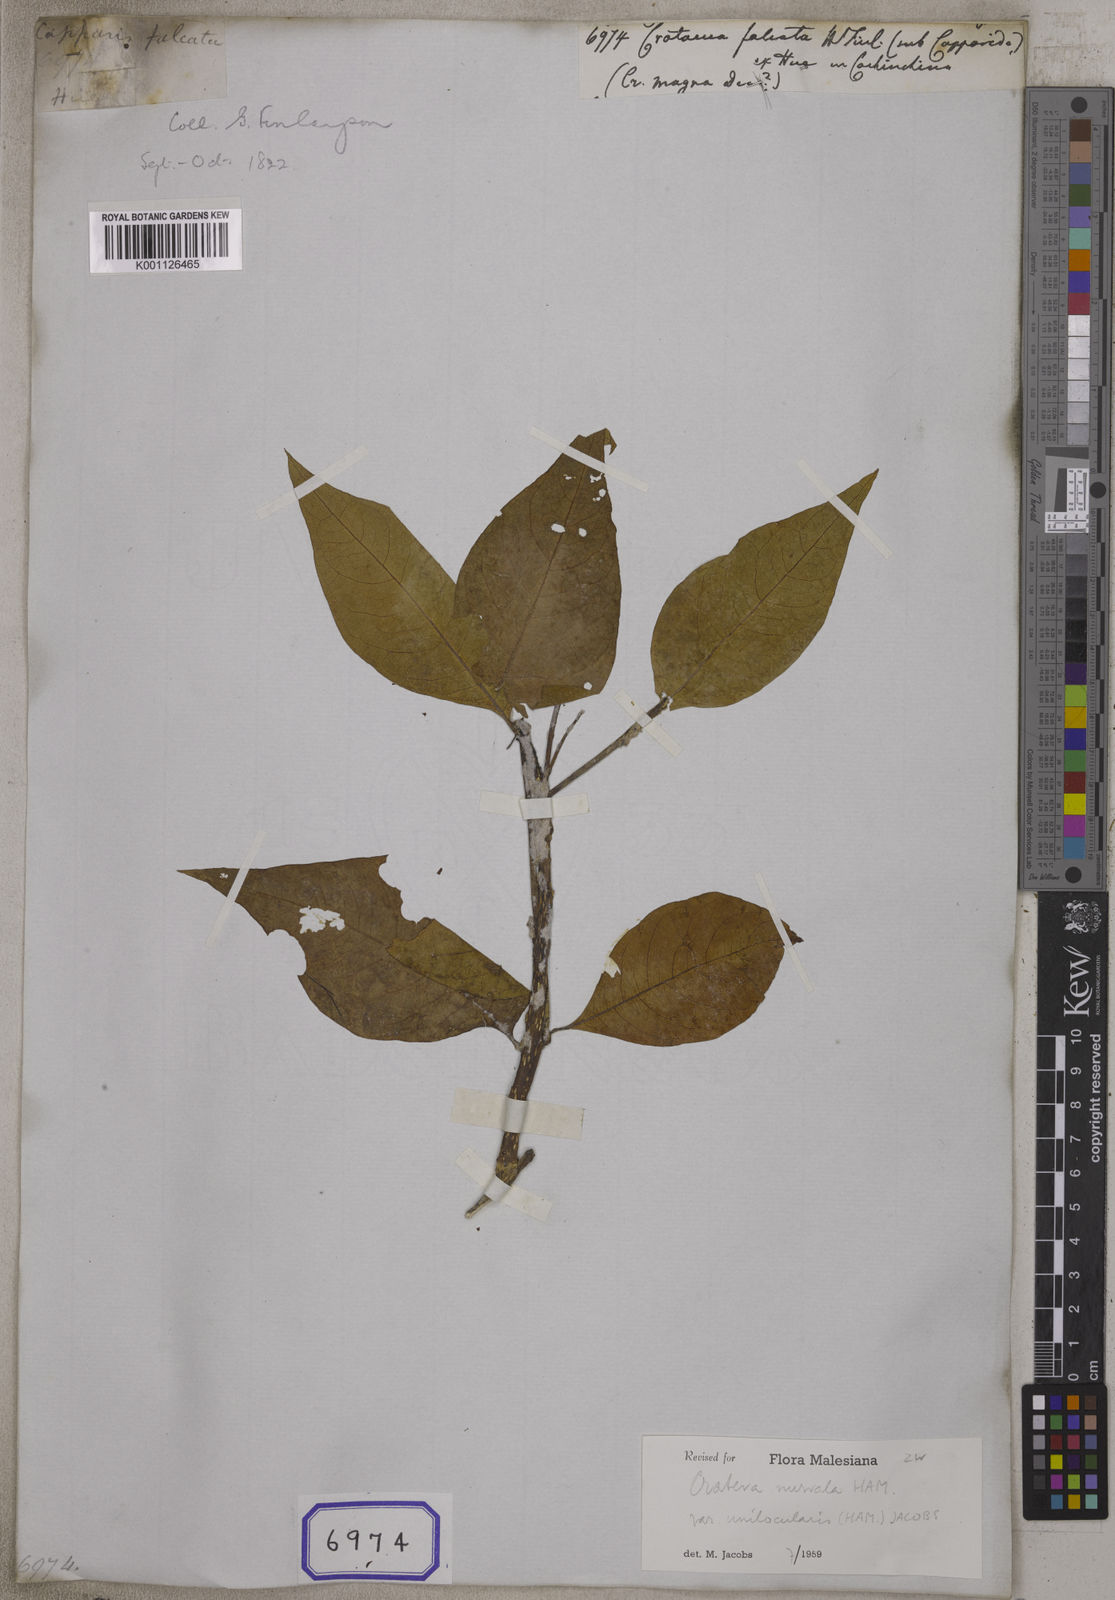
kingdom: Plantae
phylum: Tracheophyta
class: Magnoliopsida
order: Brassicales
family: Capparaceae
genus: Crateva
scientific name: Crateva falcata
